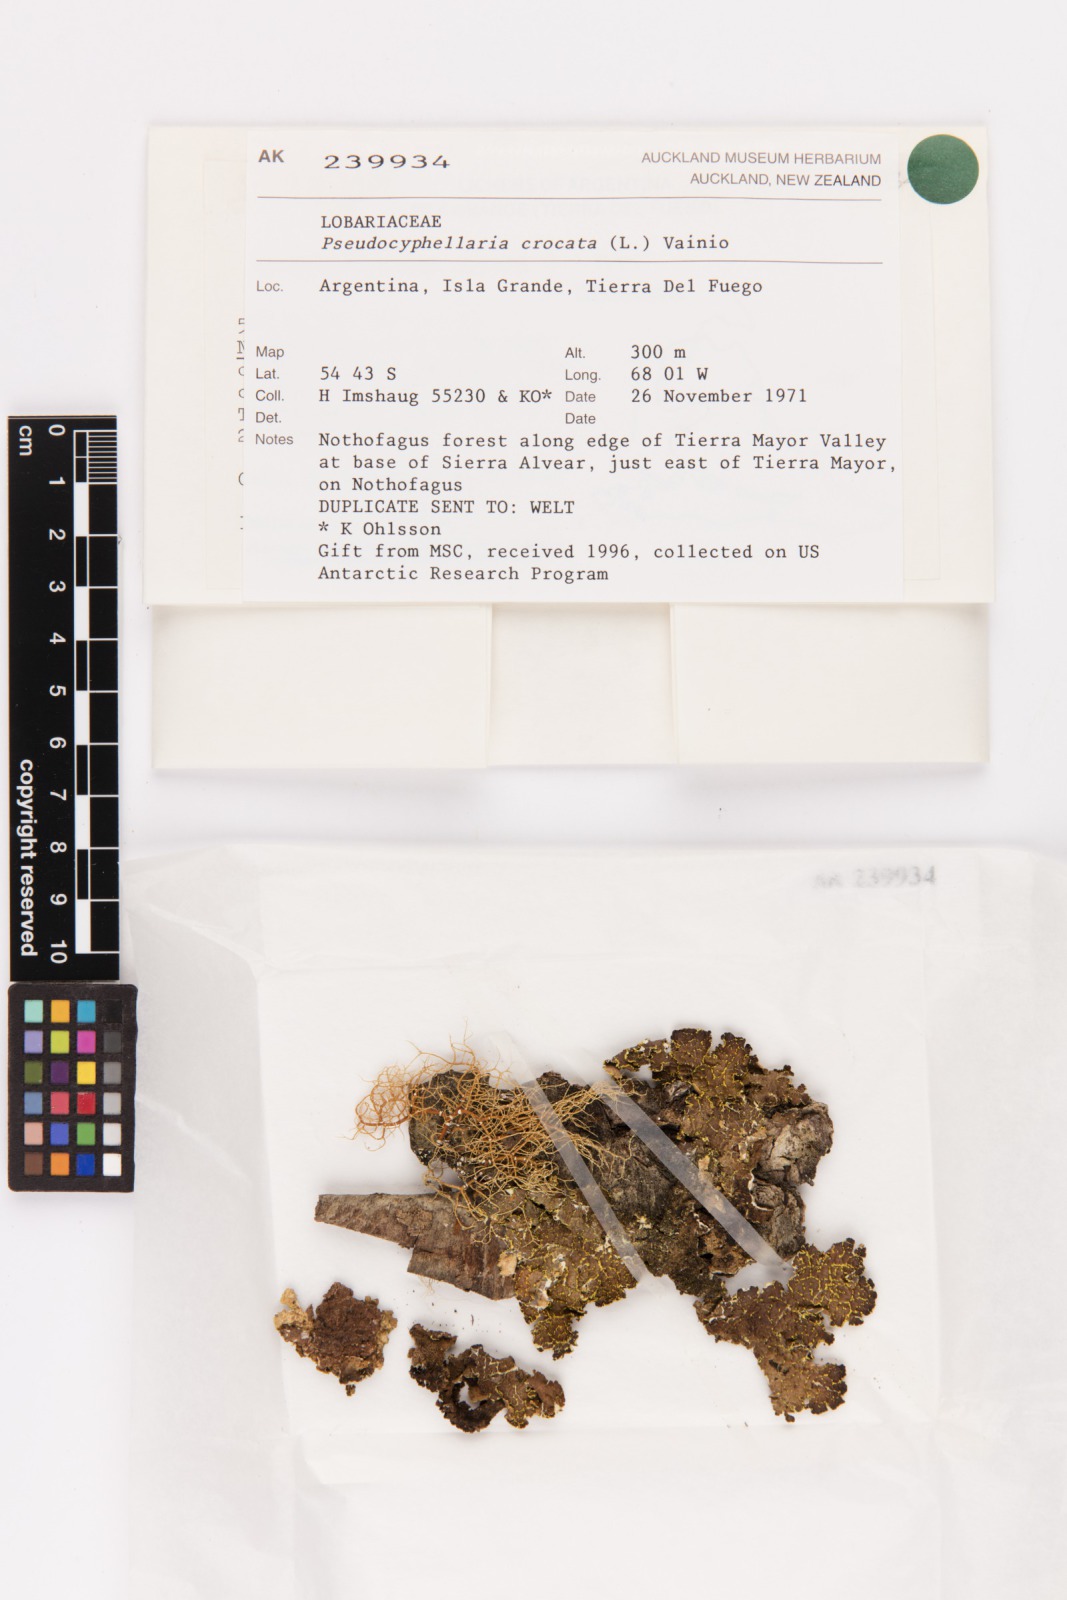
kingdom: Fungi
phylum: Ascomycota
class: Lecanoromycetes
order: Peltigerales
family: Lobariaceae
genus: Pseudocyphellaria
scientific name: Pseudocyphellaria crocata
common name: Golden specklebelly
